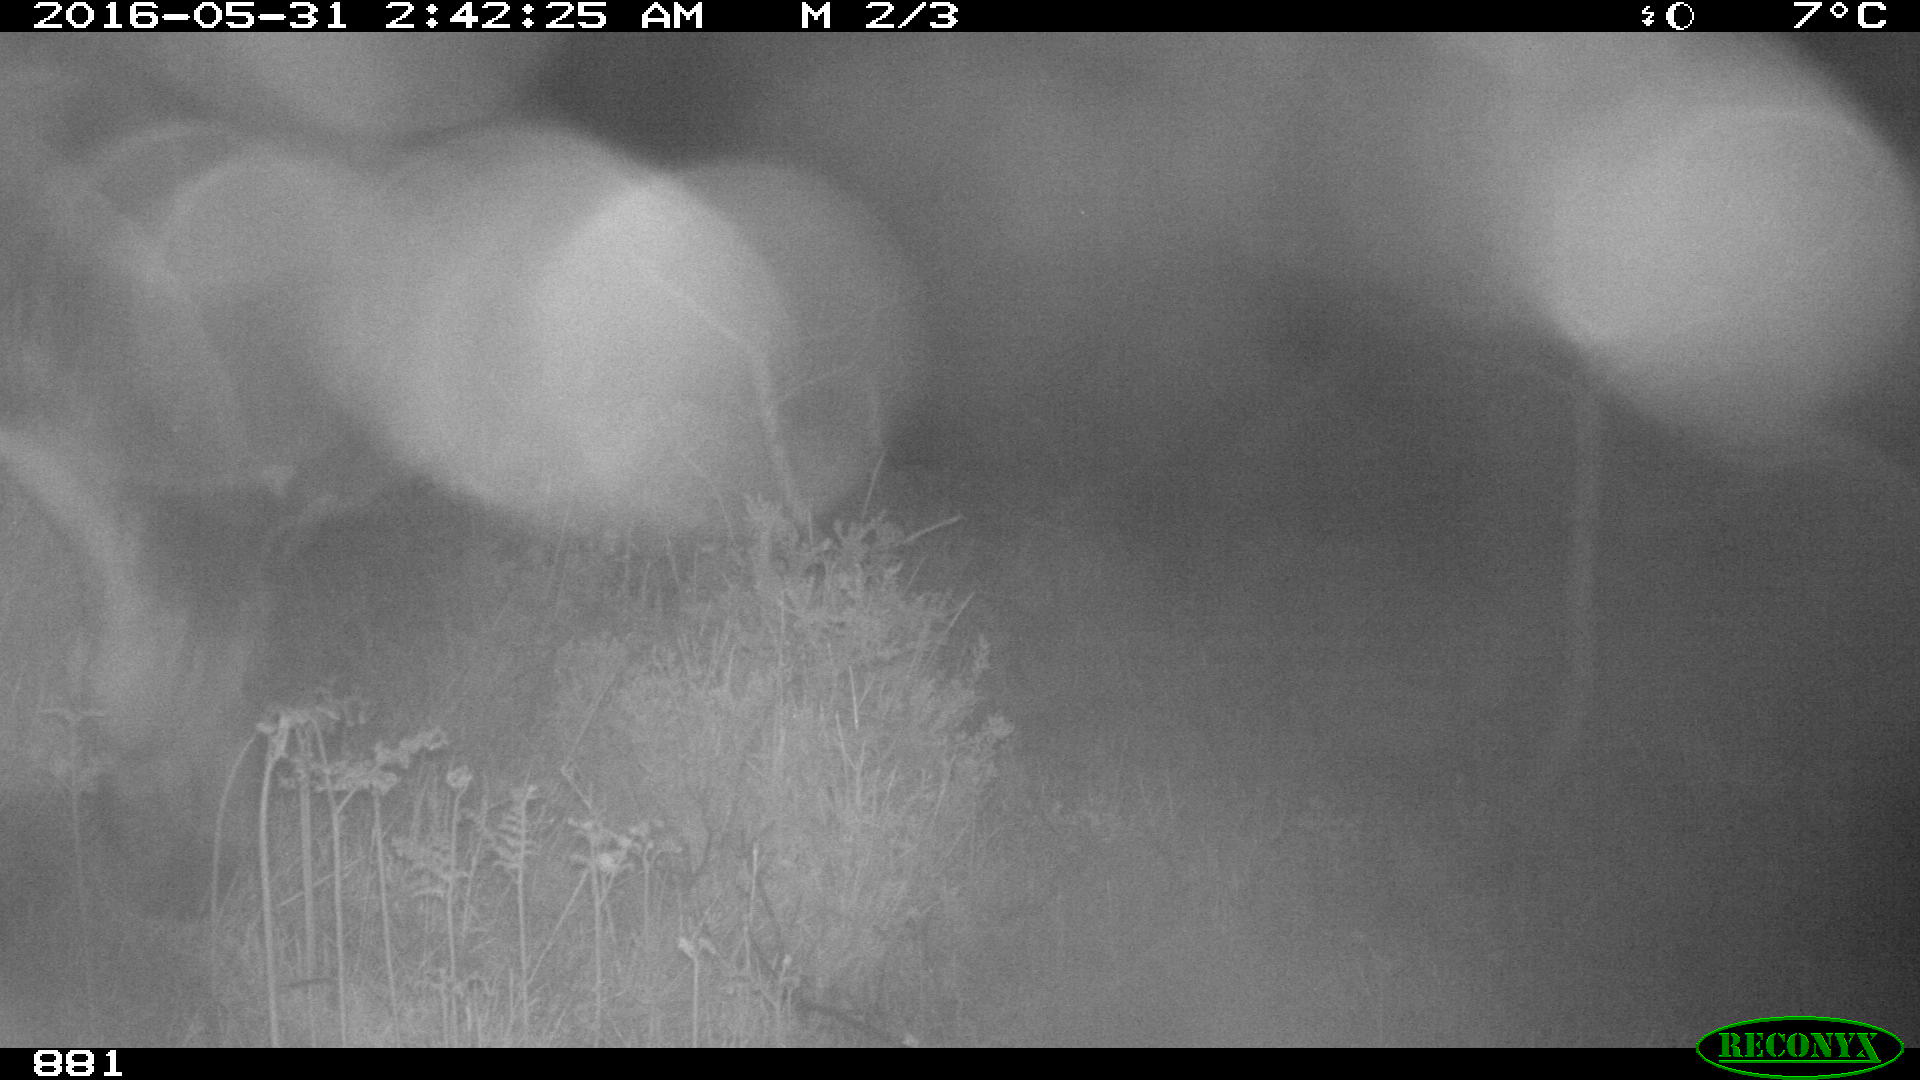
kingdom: Animalia
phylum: Chordata
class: Mammalia
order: Perissodactyla
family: Equidae
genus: Equus
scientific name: Equus caballus
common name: Horse
